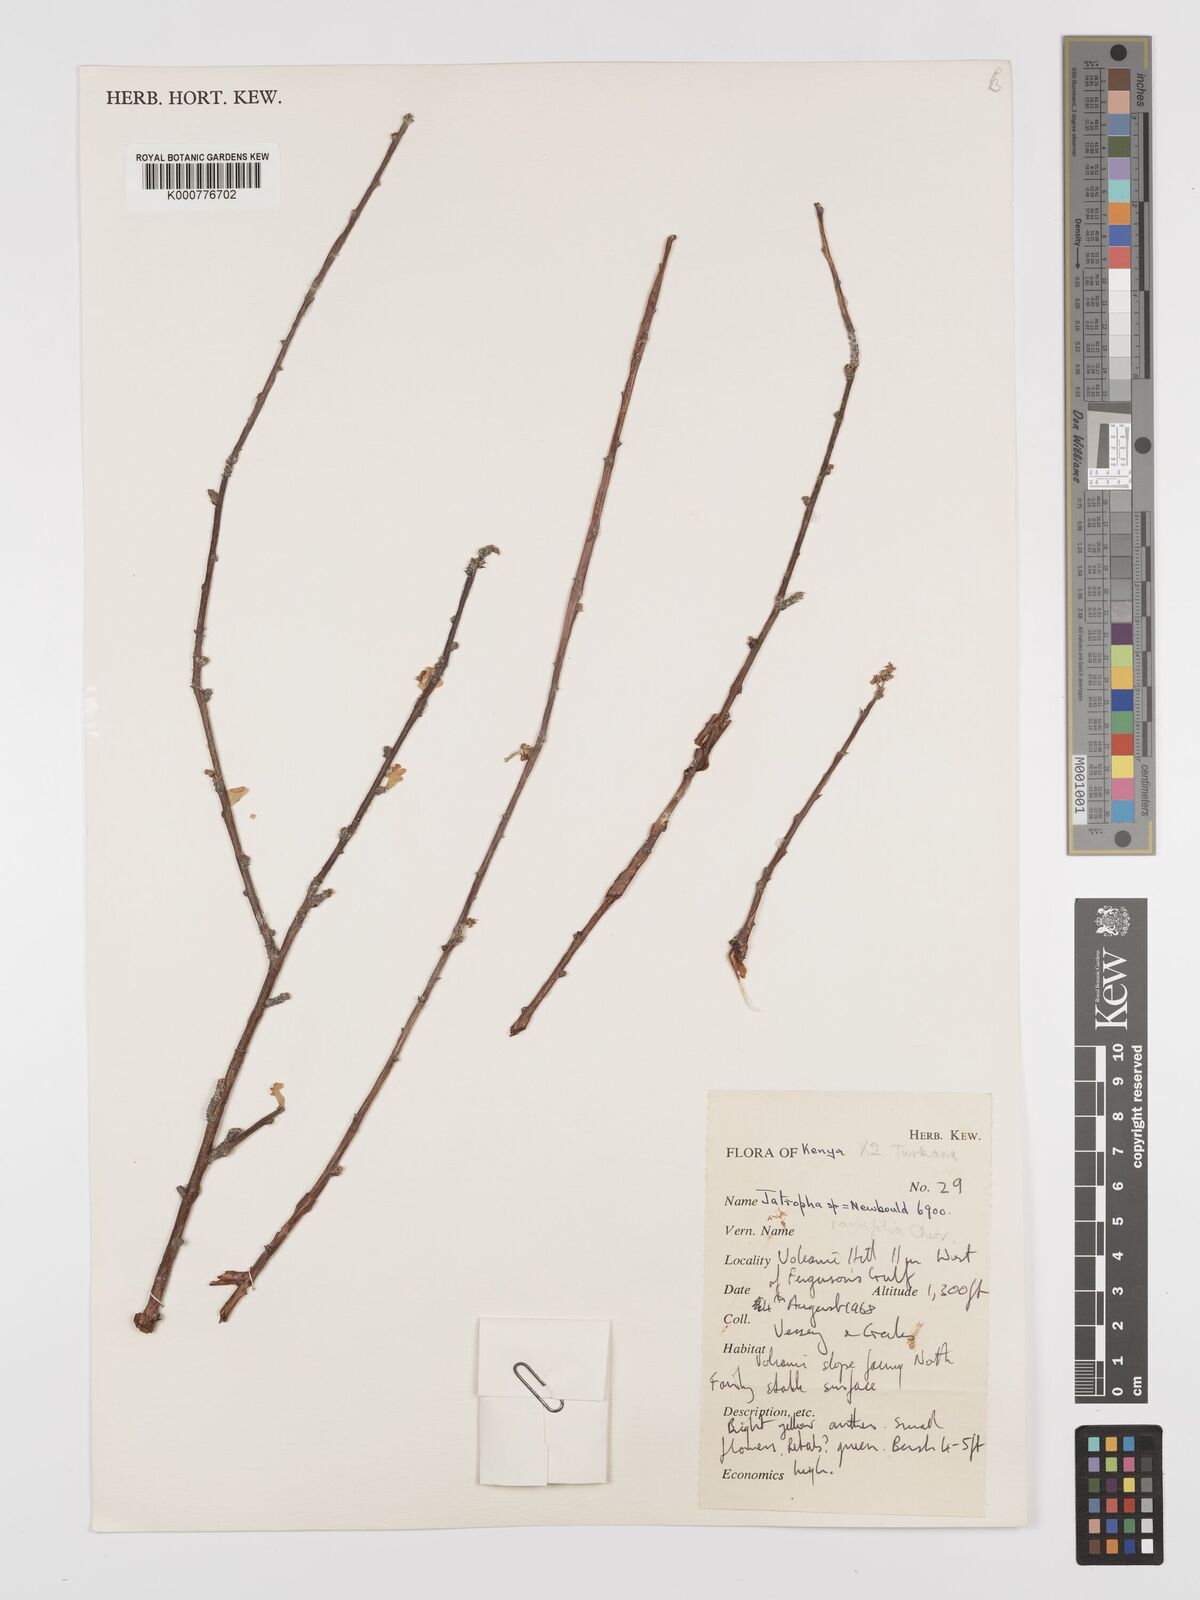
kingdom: Plantae
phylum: Tracheophyta
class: Magnoliopsida
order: Malpighiales
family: Euphorbiaceae
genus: Jatropha
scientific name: Jatropha rivae
